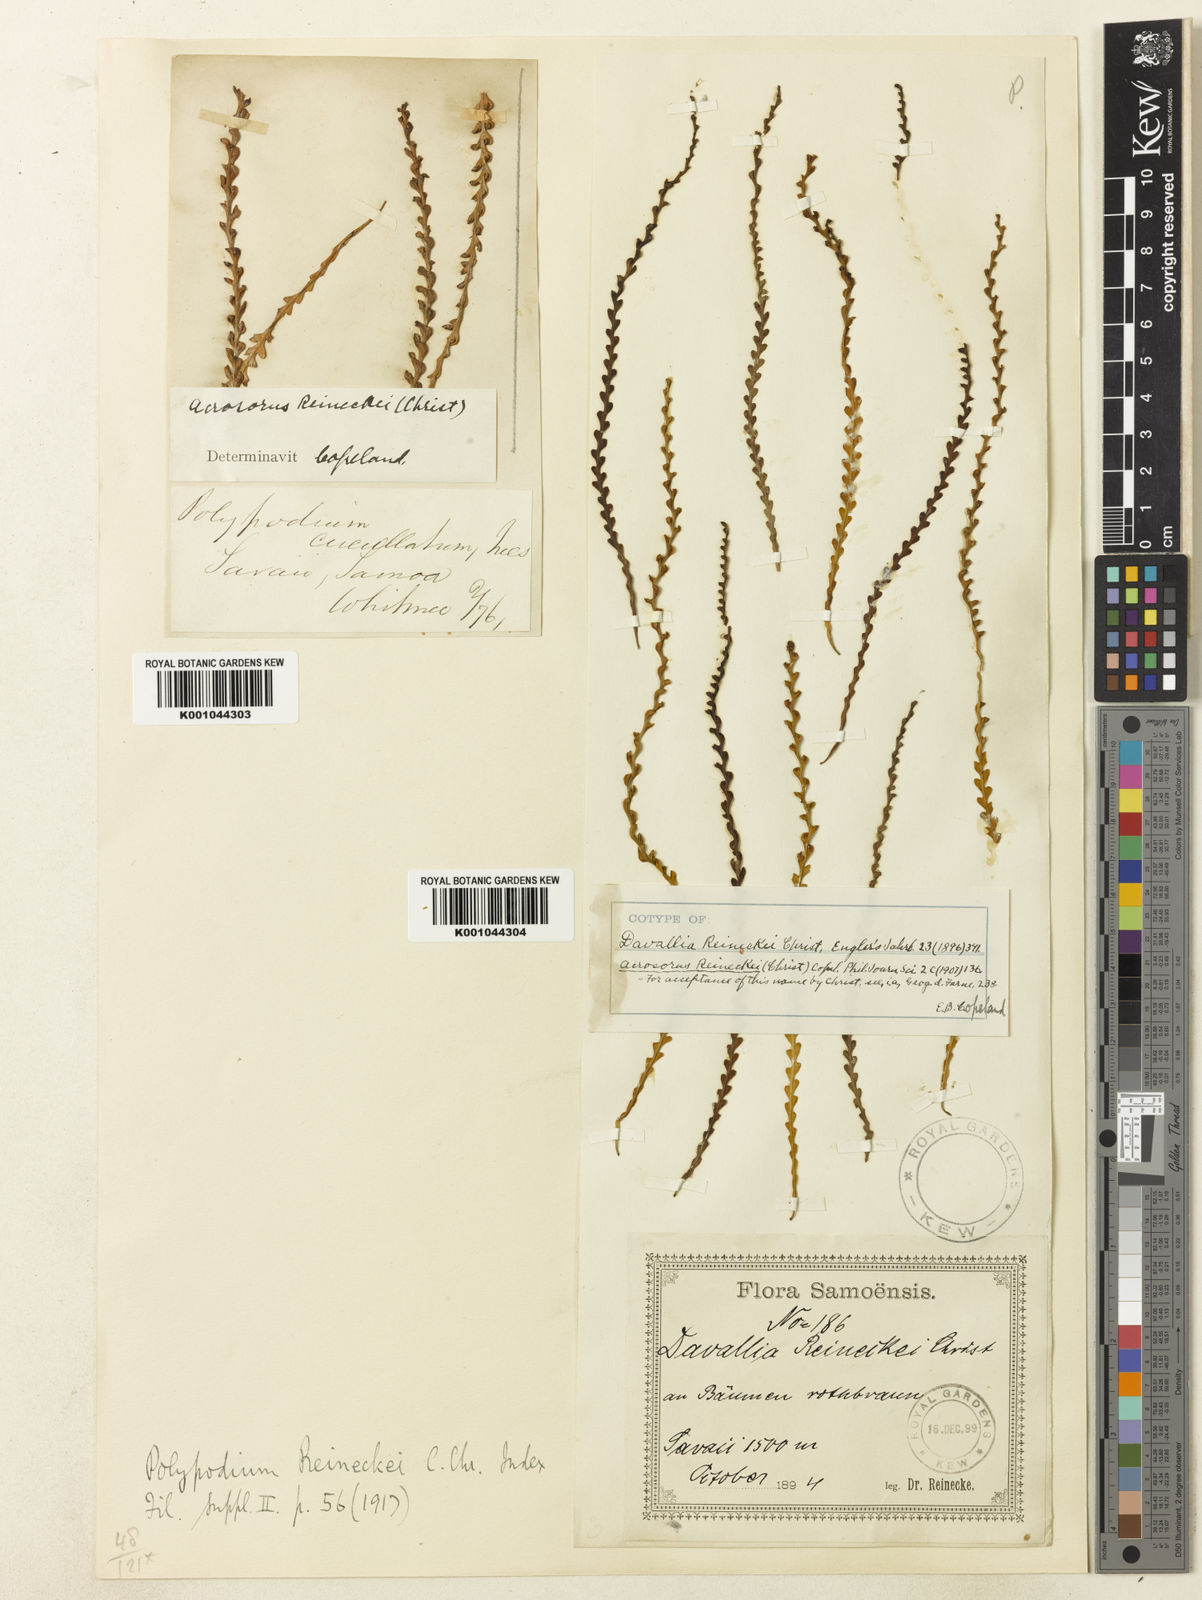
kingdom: Plantae
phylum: Tracheophyta
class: Polypodiopsida
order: Polypodiales
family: Polypodiaceae
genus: Acrosorus
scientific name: Acrosorus reineckei
